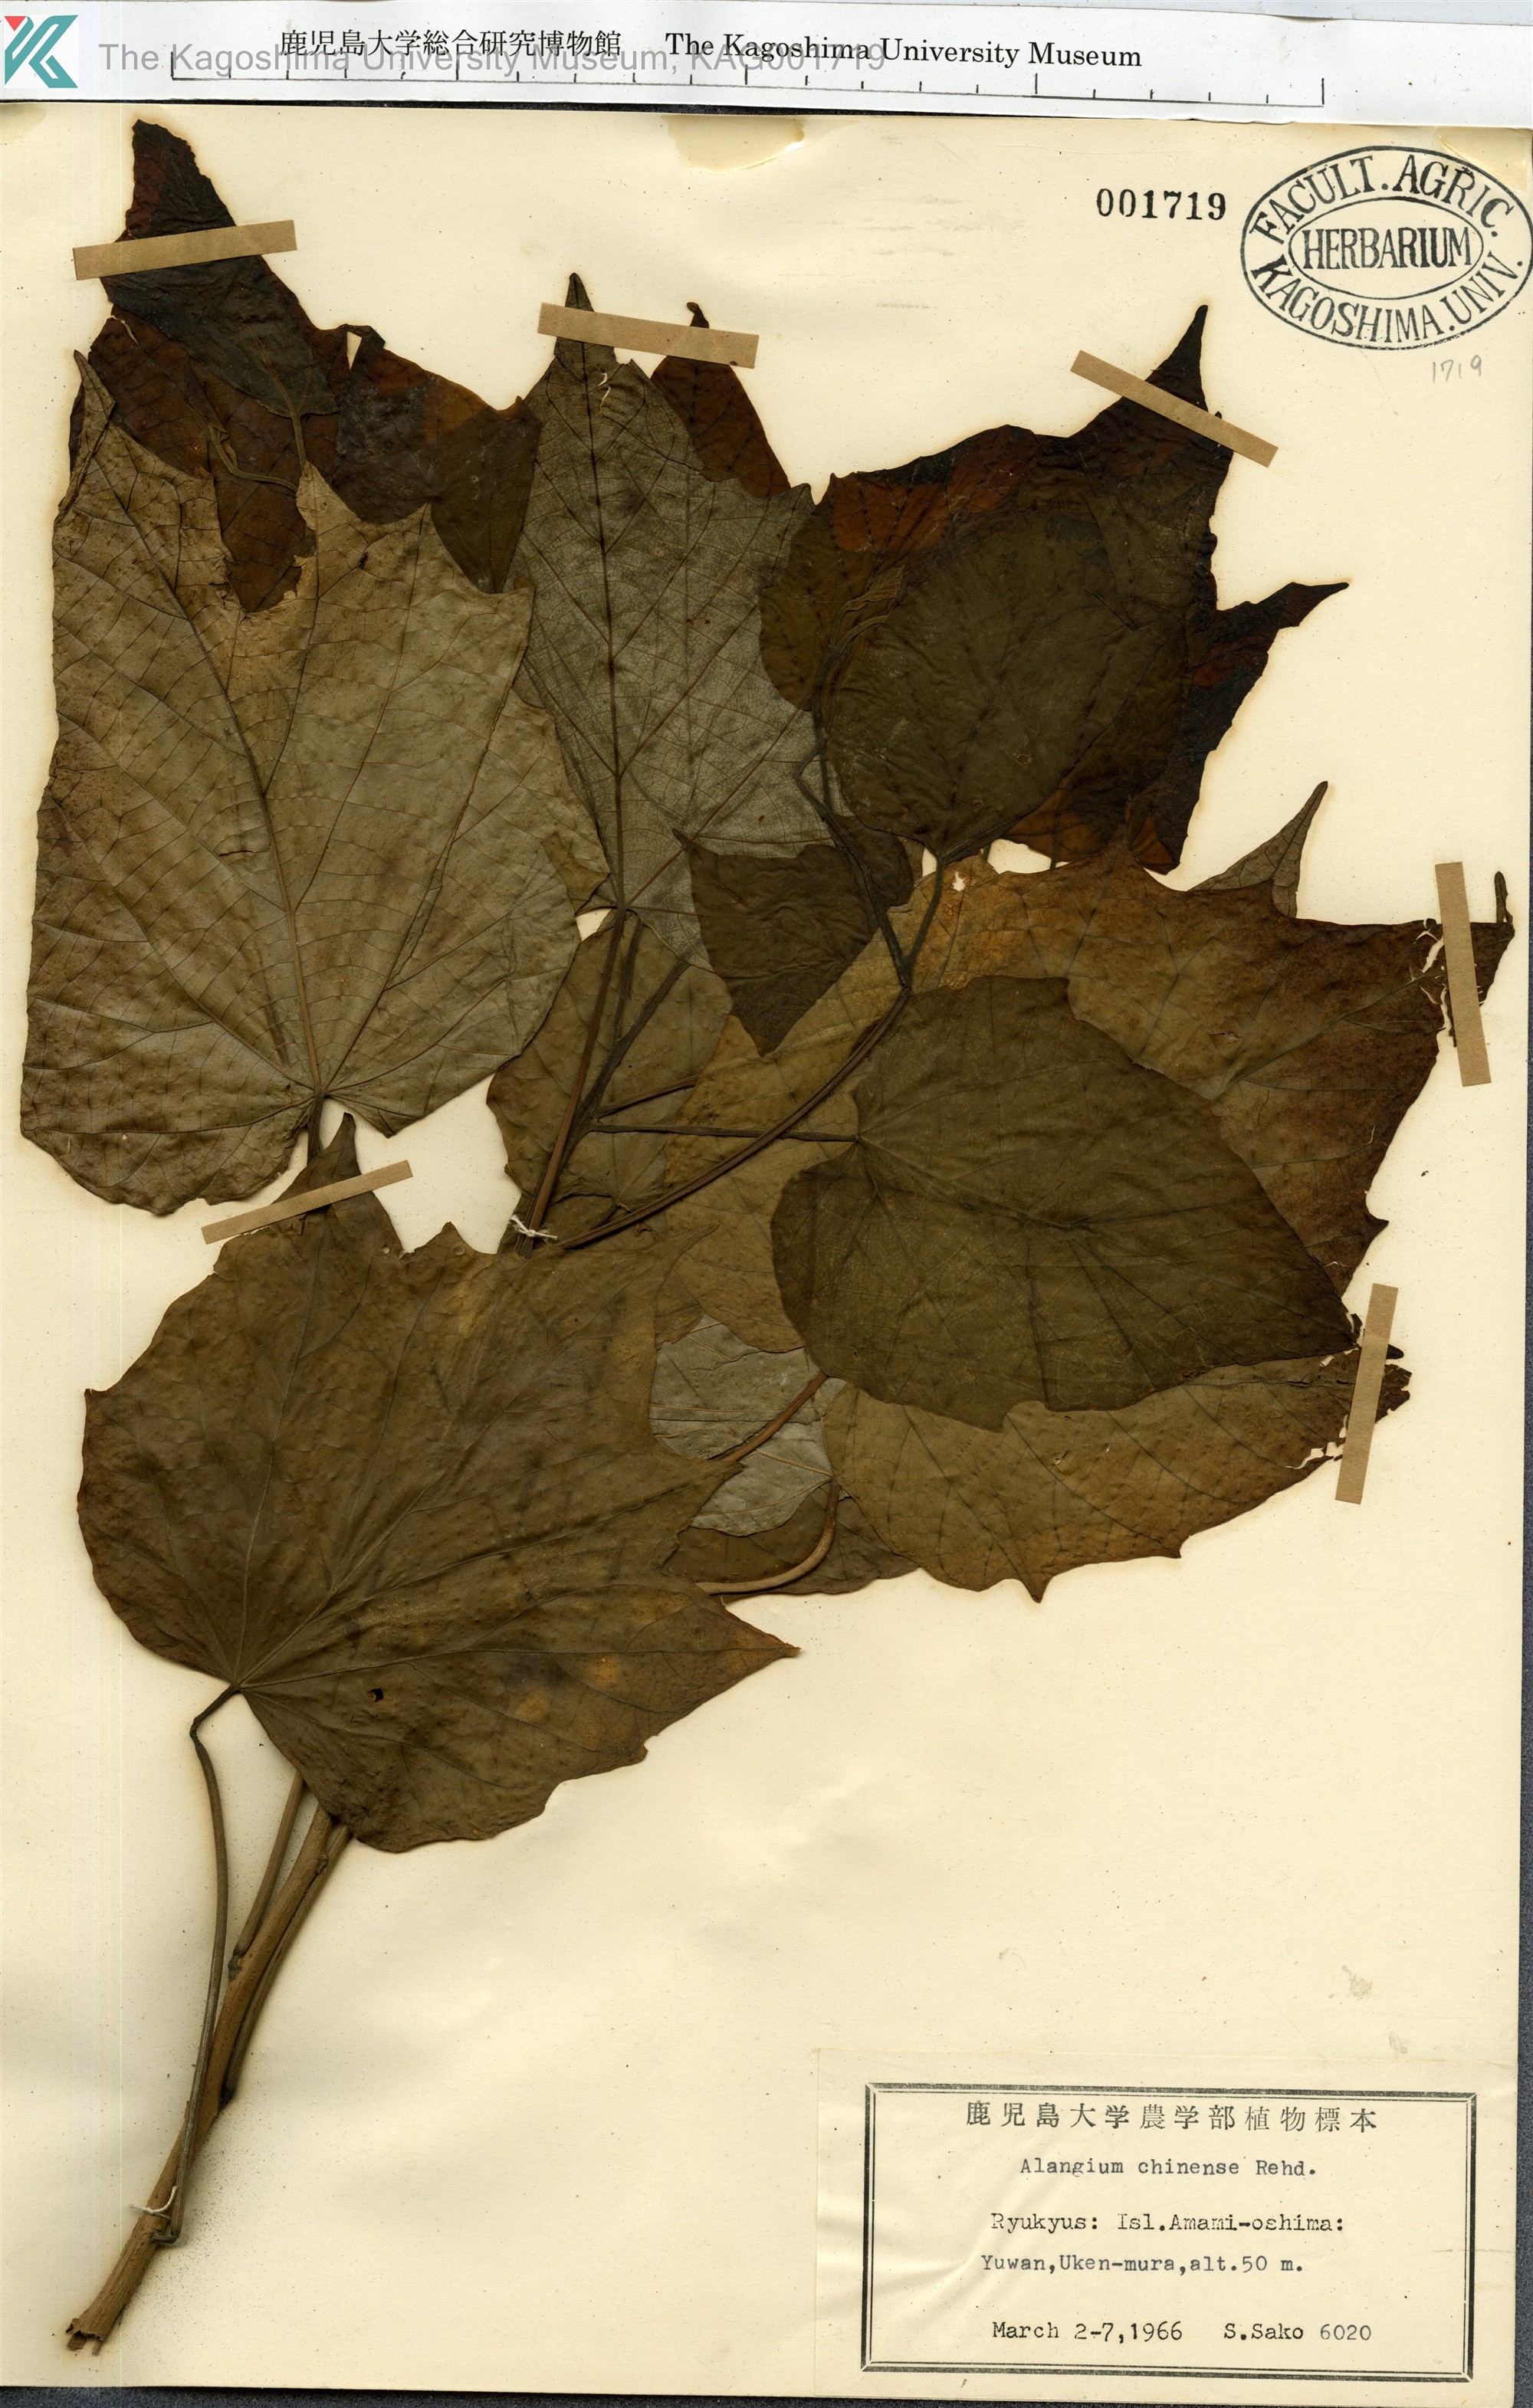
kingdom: Plantae
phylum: Tracheophyta
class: Magnoliopsida
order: Cornales
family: Cornaceae
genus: Alangium
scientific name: Alangium chinense
